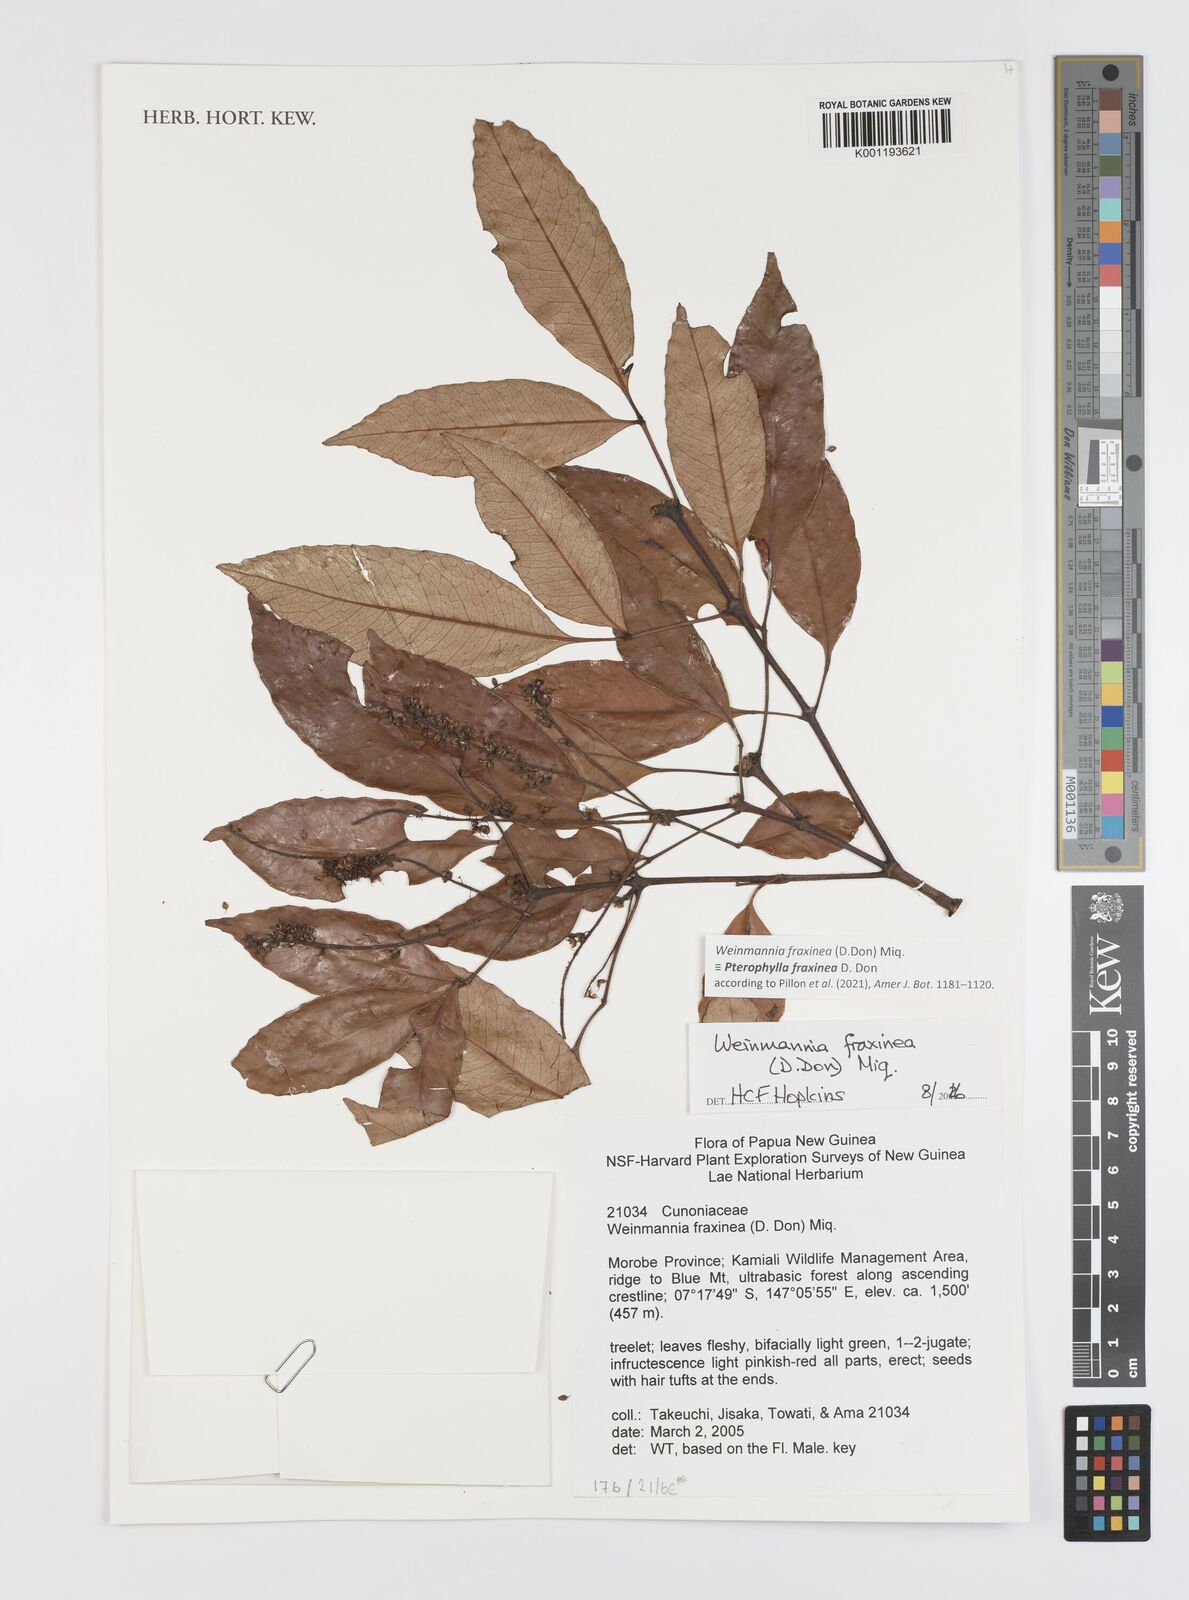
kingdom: Plantae
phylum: Tracheophyta
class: Magnoliopsida
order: Oxalidales
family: Cunoniaceae
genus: Weinmannia
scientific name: Weinmannia
